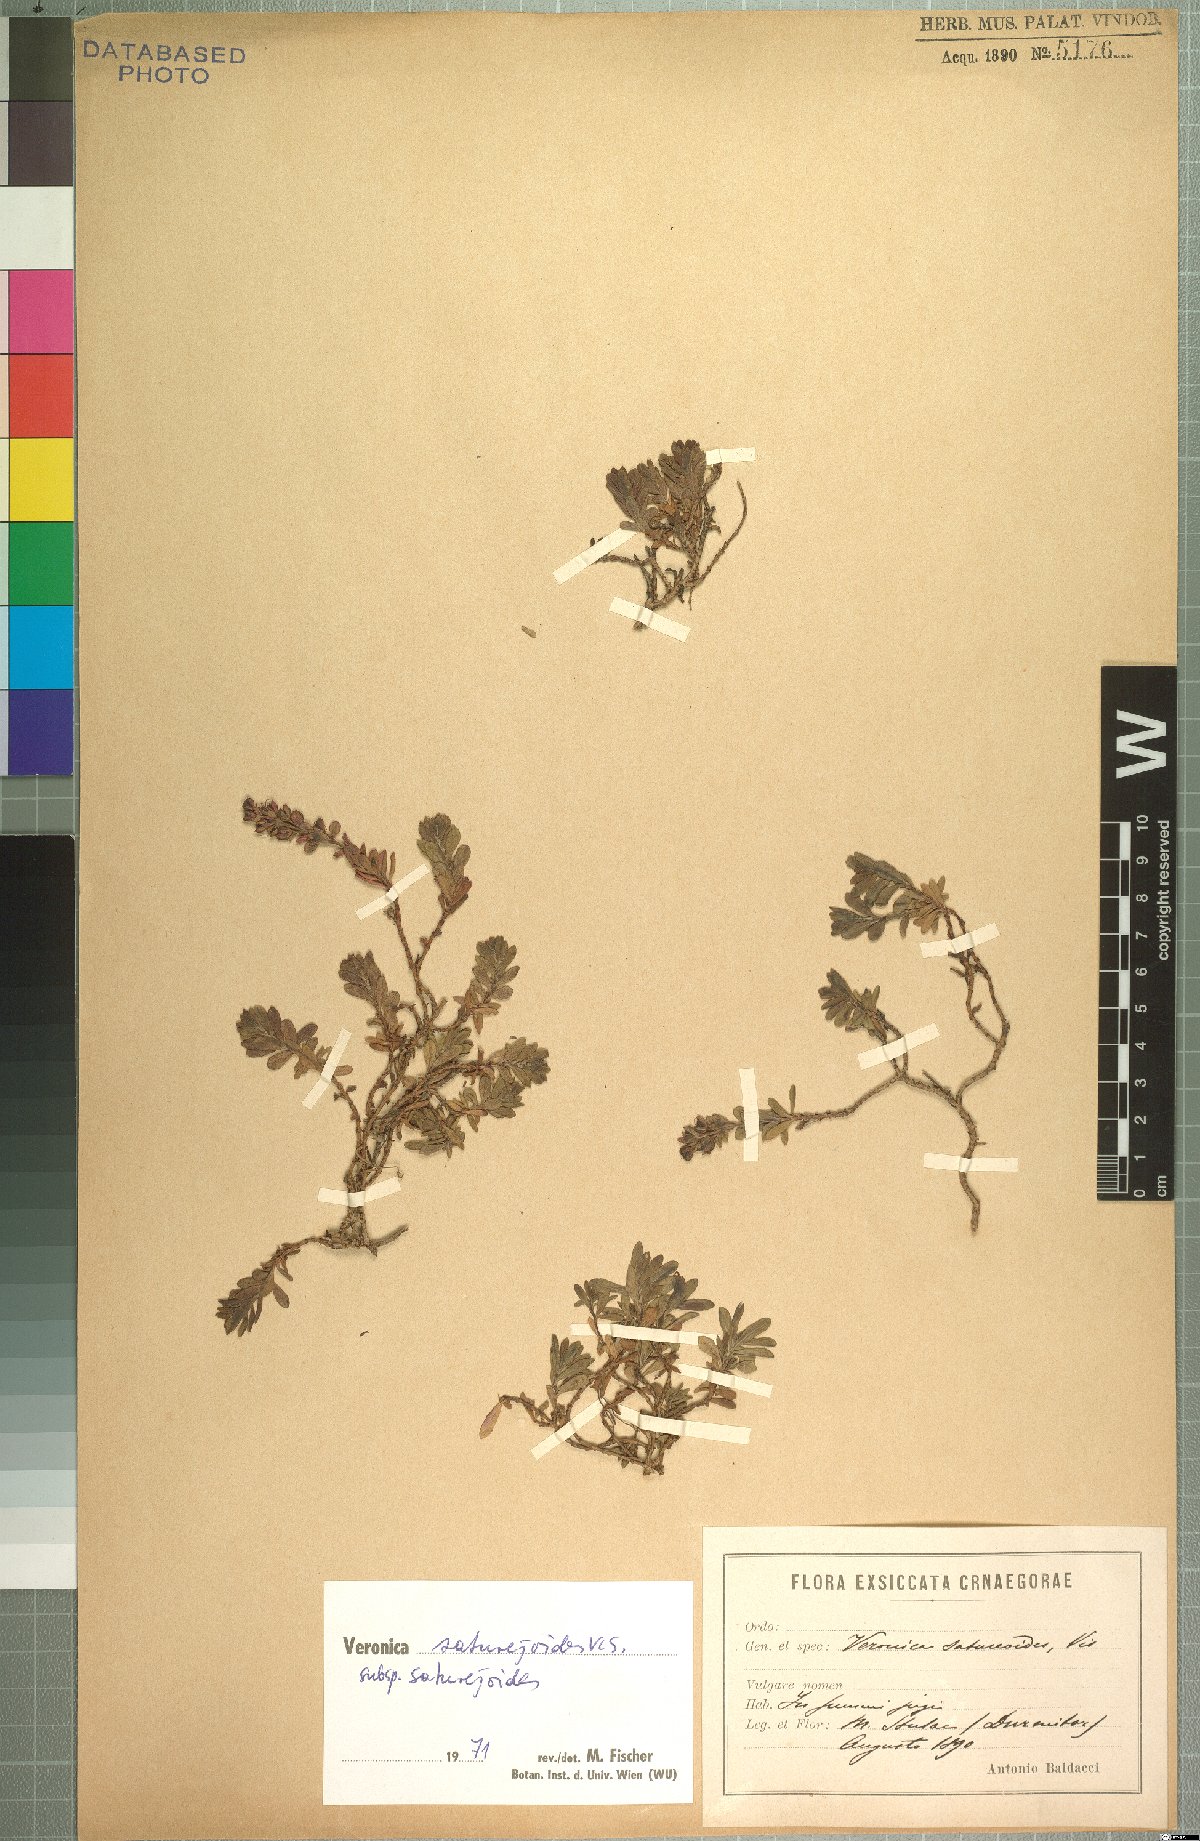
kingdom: Plantae
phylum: Tracheophyta
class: Magnoliopsida
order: Lamiales
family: Plantaginaceae
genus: Veronica
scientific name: Veronica saturejoides
